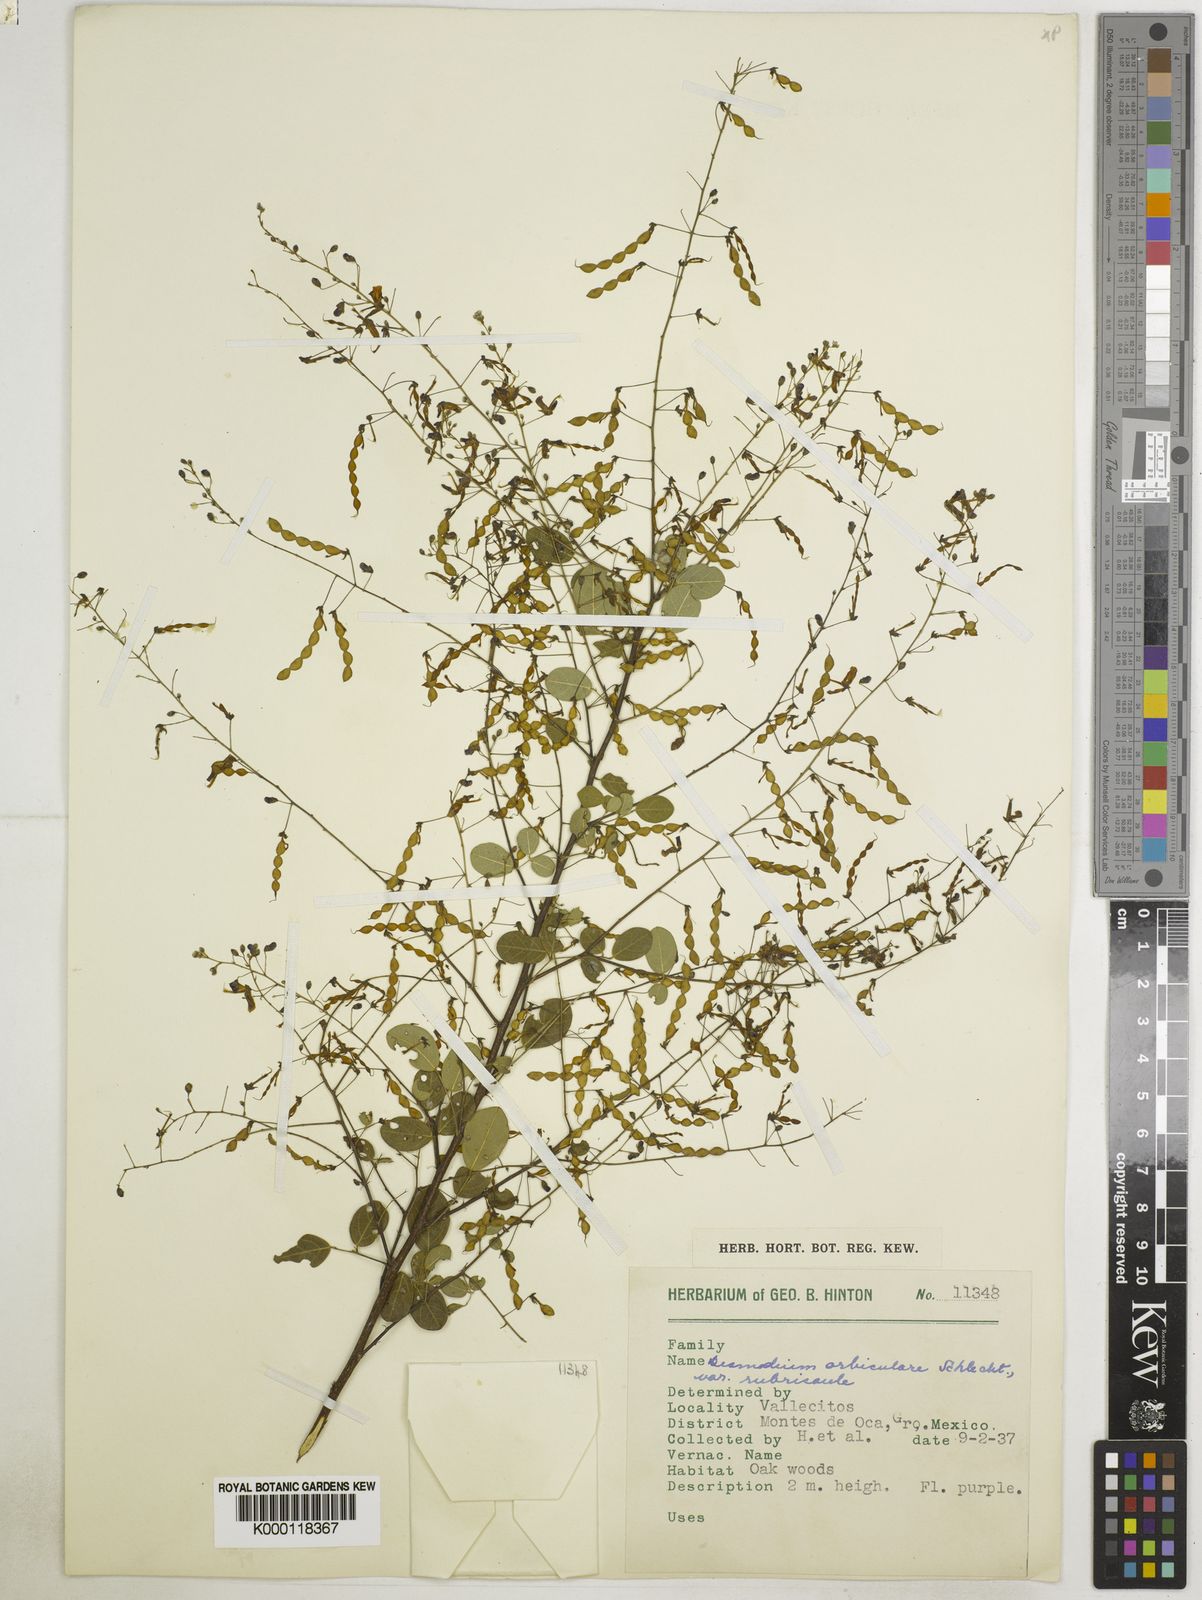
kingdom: Plantae
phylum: Tracheophyta
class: Magnoliopsida
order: Fabales
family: Fabaceae
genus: Desmodium
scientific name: Desmodium orbiculare
